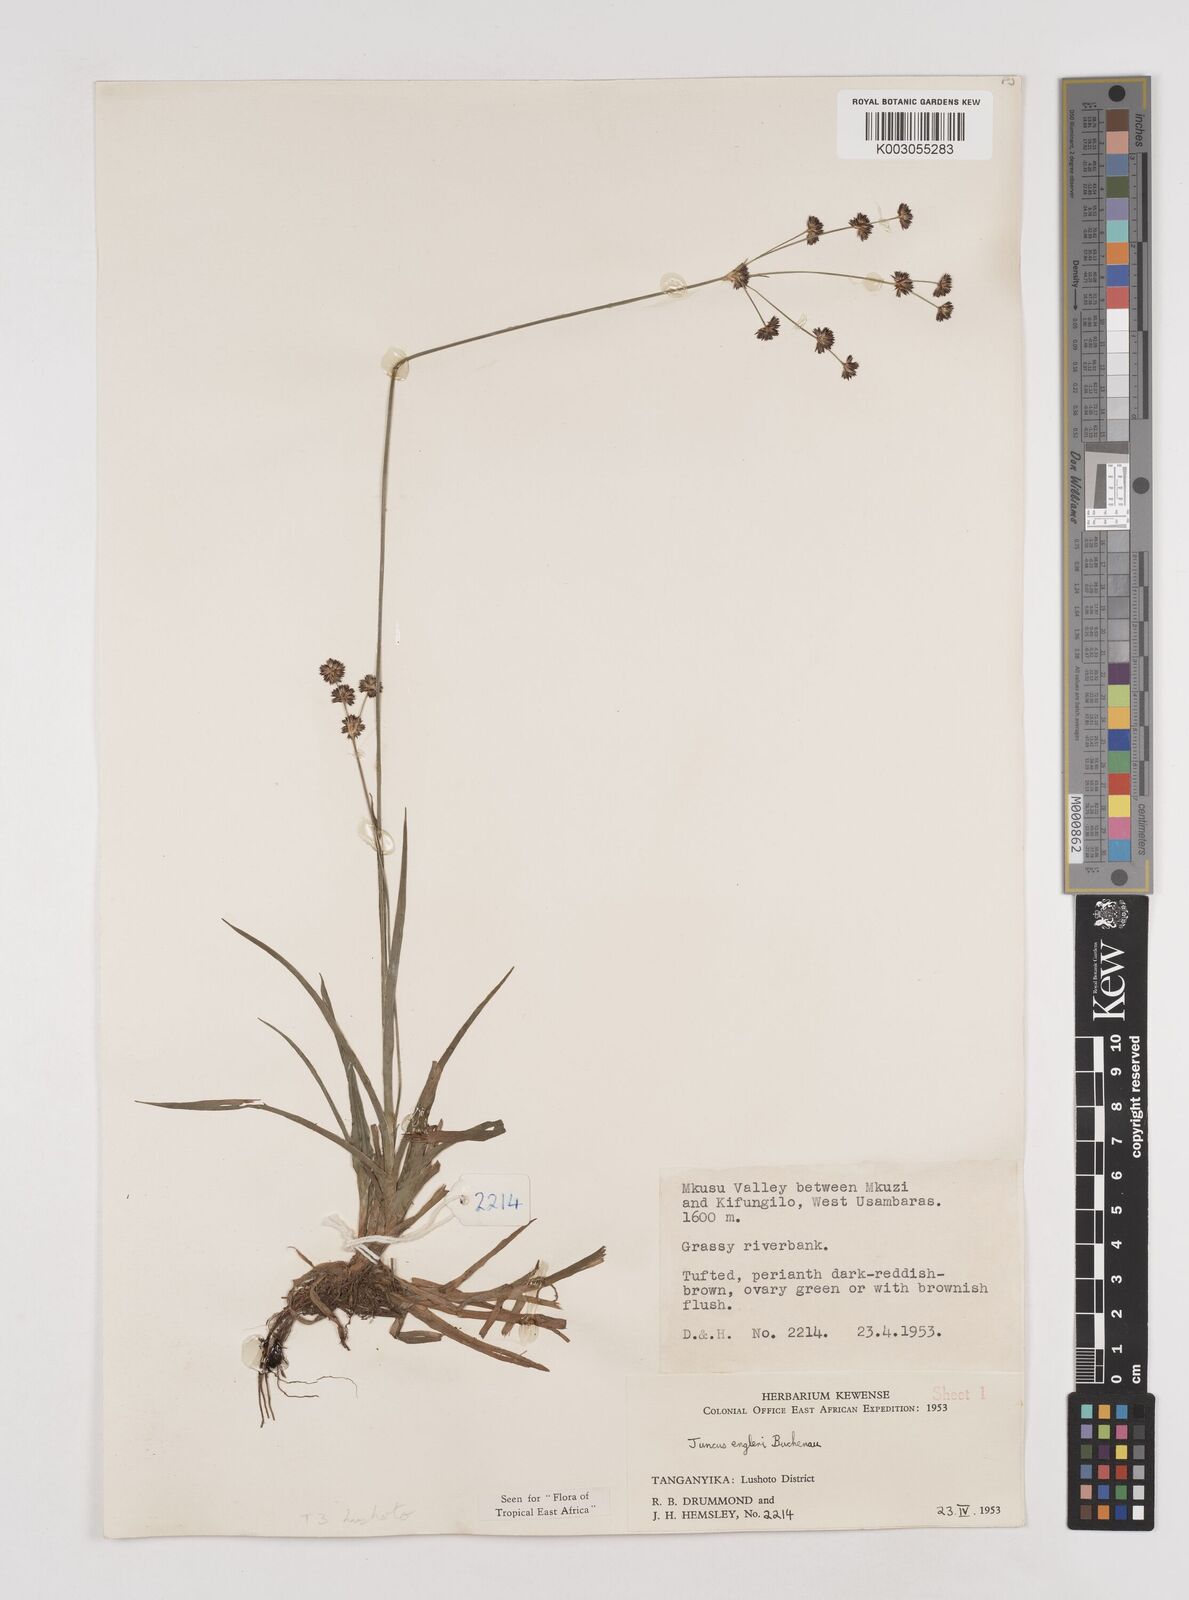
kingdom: Plantae
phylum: Tracheophyta
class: Liliopsida
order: Poales
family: Juncaceae
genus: Juncus
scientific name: Juncus engleri
